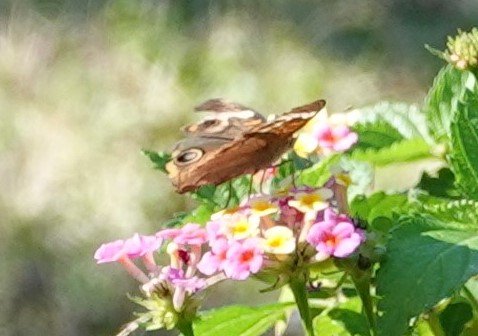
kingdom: Animalia
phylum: Arthropoda
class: Insecta
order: Lepidoptera
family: Nymphalidae
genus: Junonia
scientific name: Junonia coenia
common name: Common Buckeye
